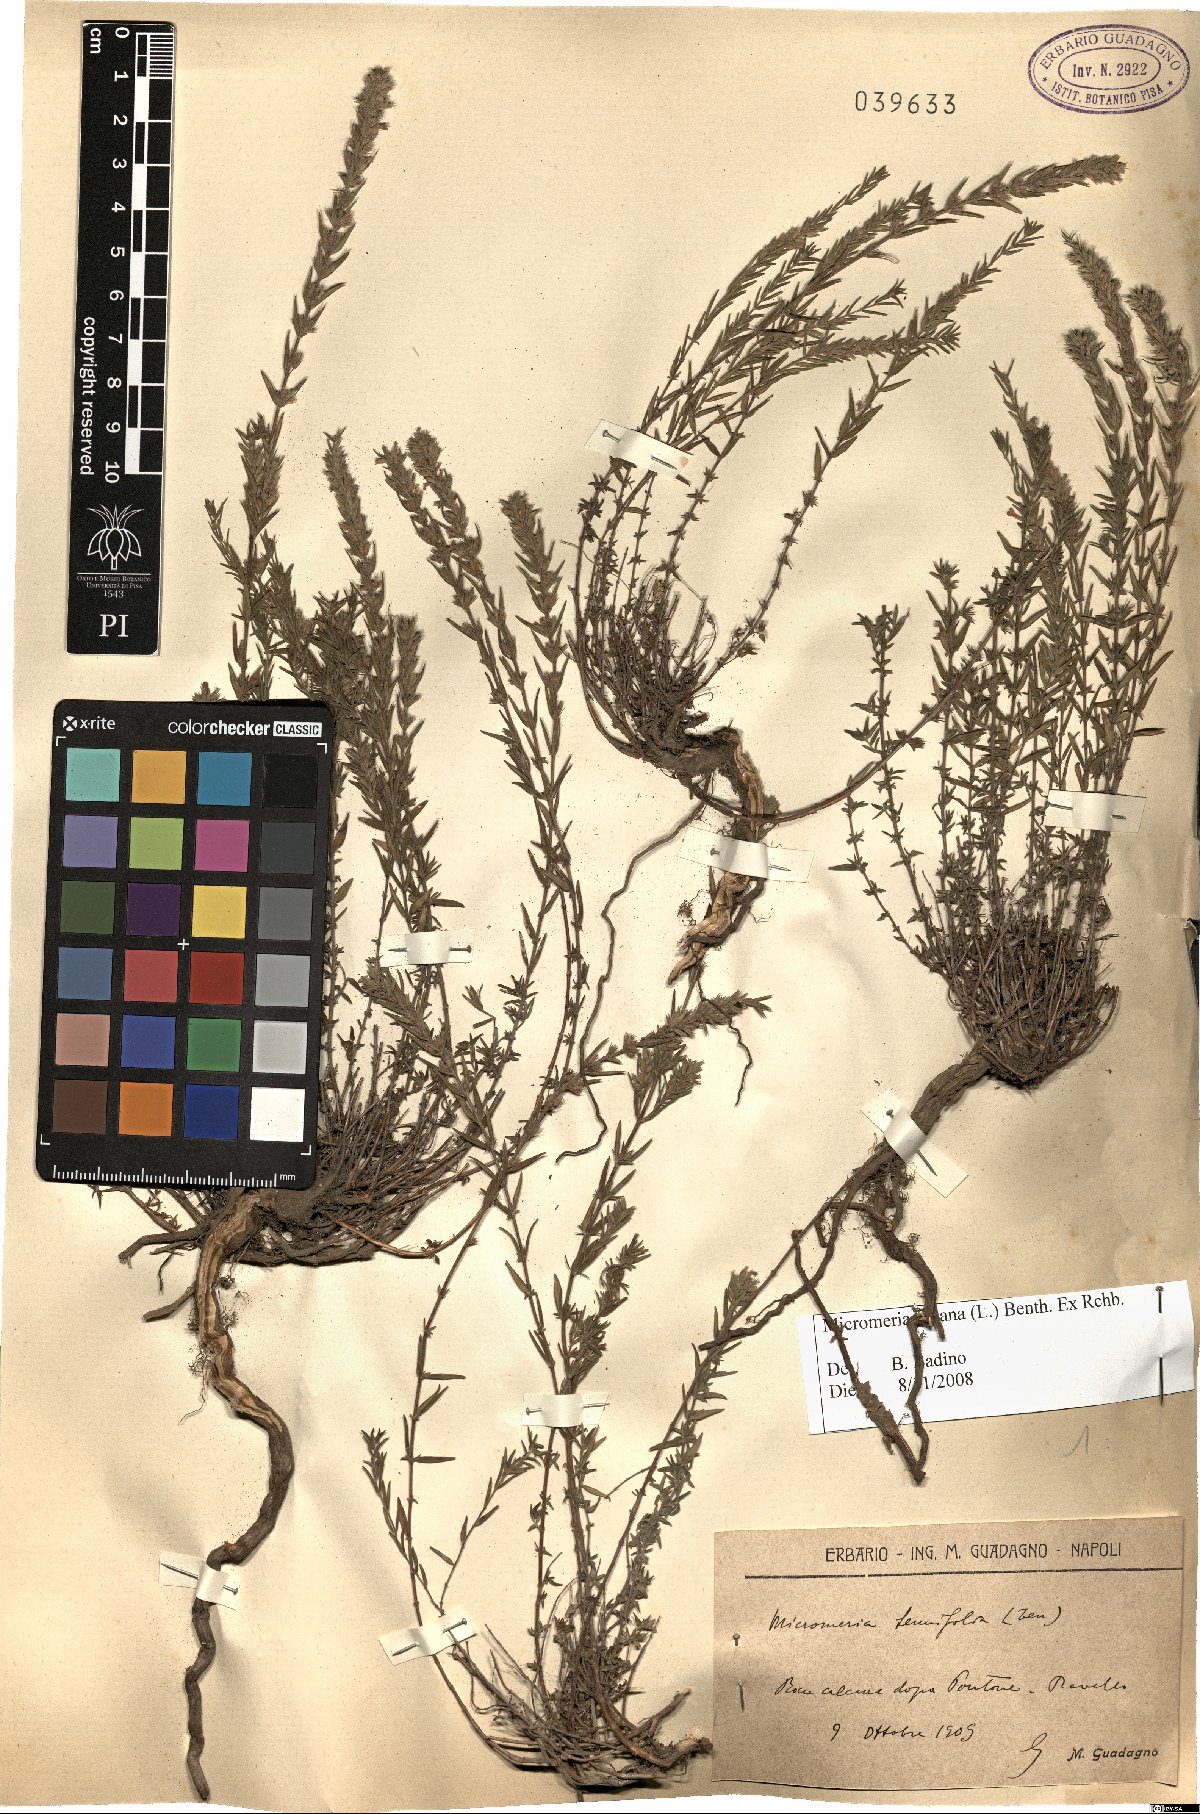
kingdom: Plantae
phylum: Tracheophyta
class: Magnoliopsida
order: Lamiales
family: Lamiaceae
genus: Micromeria
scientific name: Micromeria juliana
